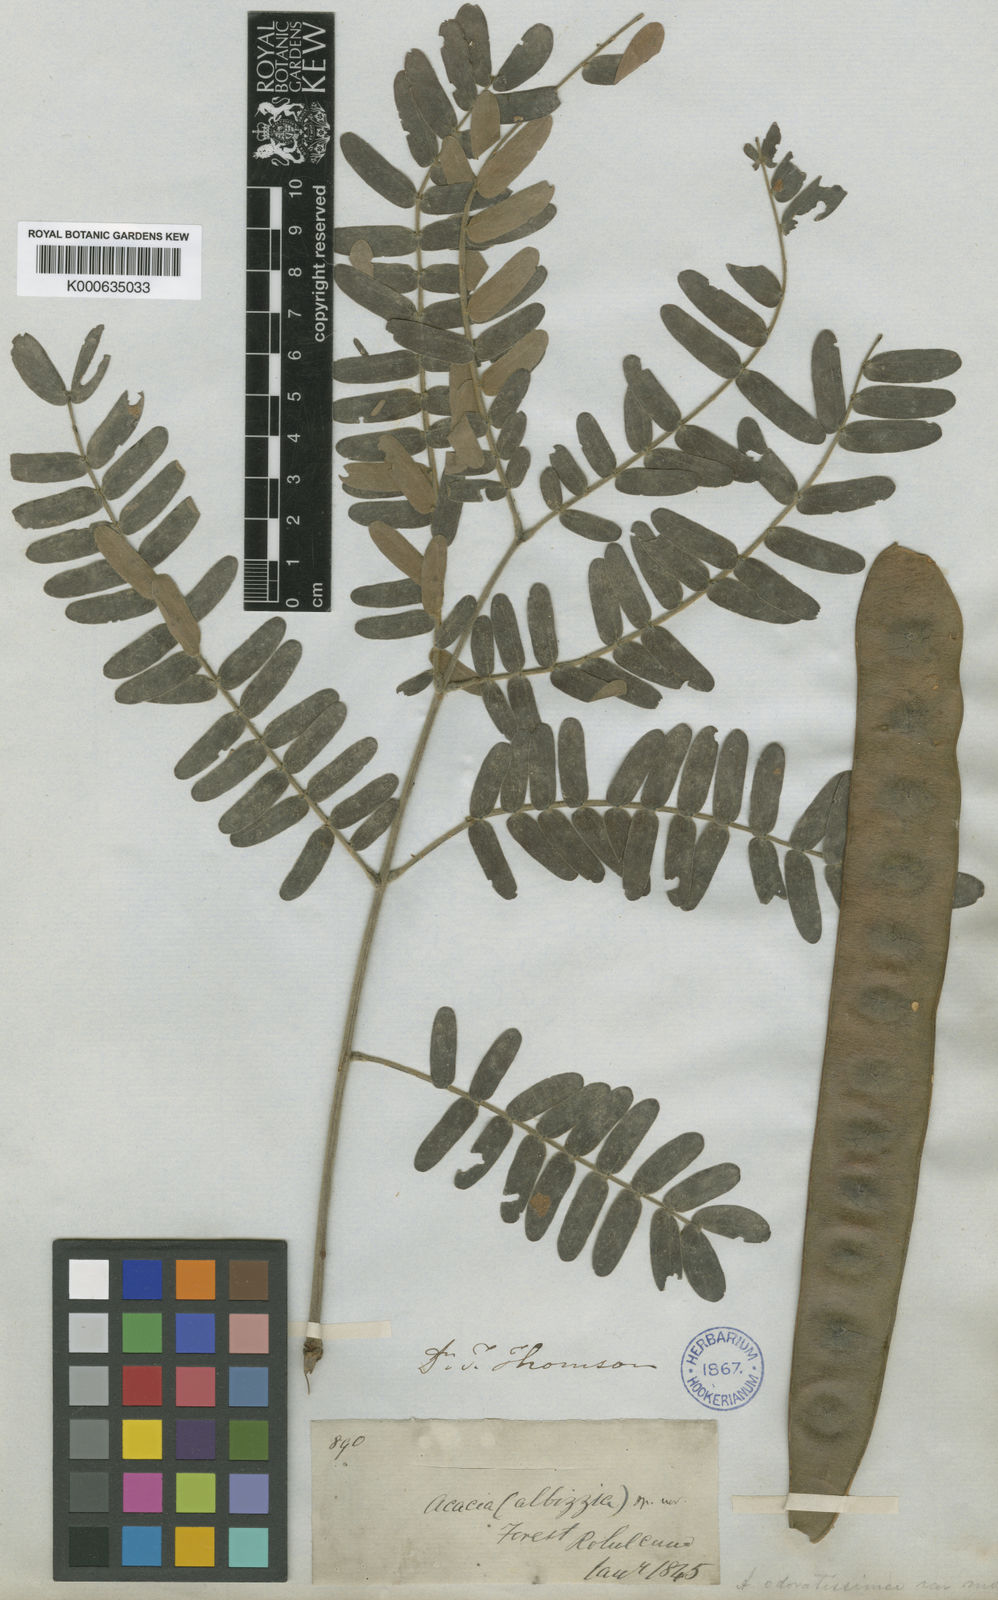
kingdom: Plantae
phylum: Tracheophyta
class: Magnoliopsida
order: Fabales
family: Fabaceae
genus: Albizia
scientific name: Albizia odoratissima
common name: Ceylon rosewood
